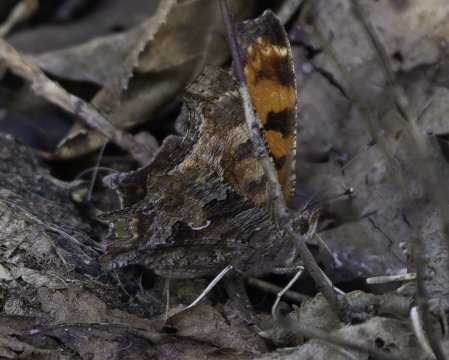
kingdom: Animalia
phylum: Arthropoda
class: Insecta
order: Lepidoptera
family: Nymphalidae
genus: Polygonia
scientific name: Polygonia comma
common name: Eastern Comma
